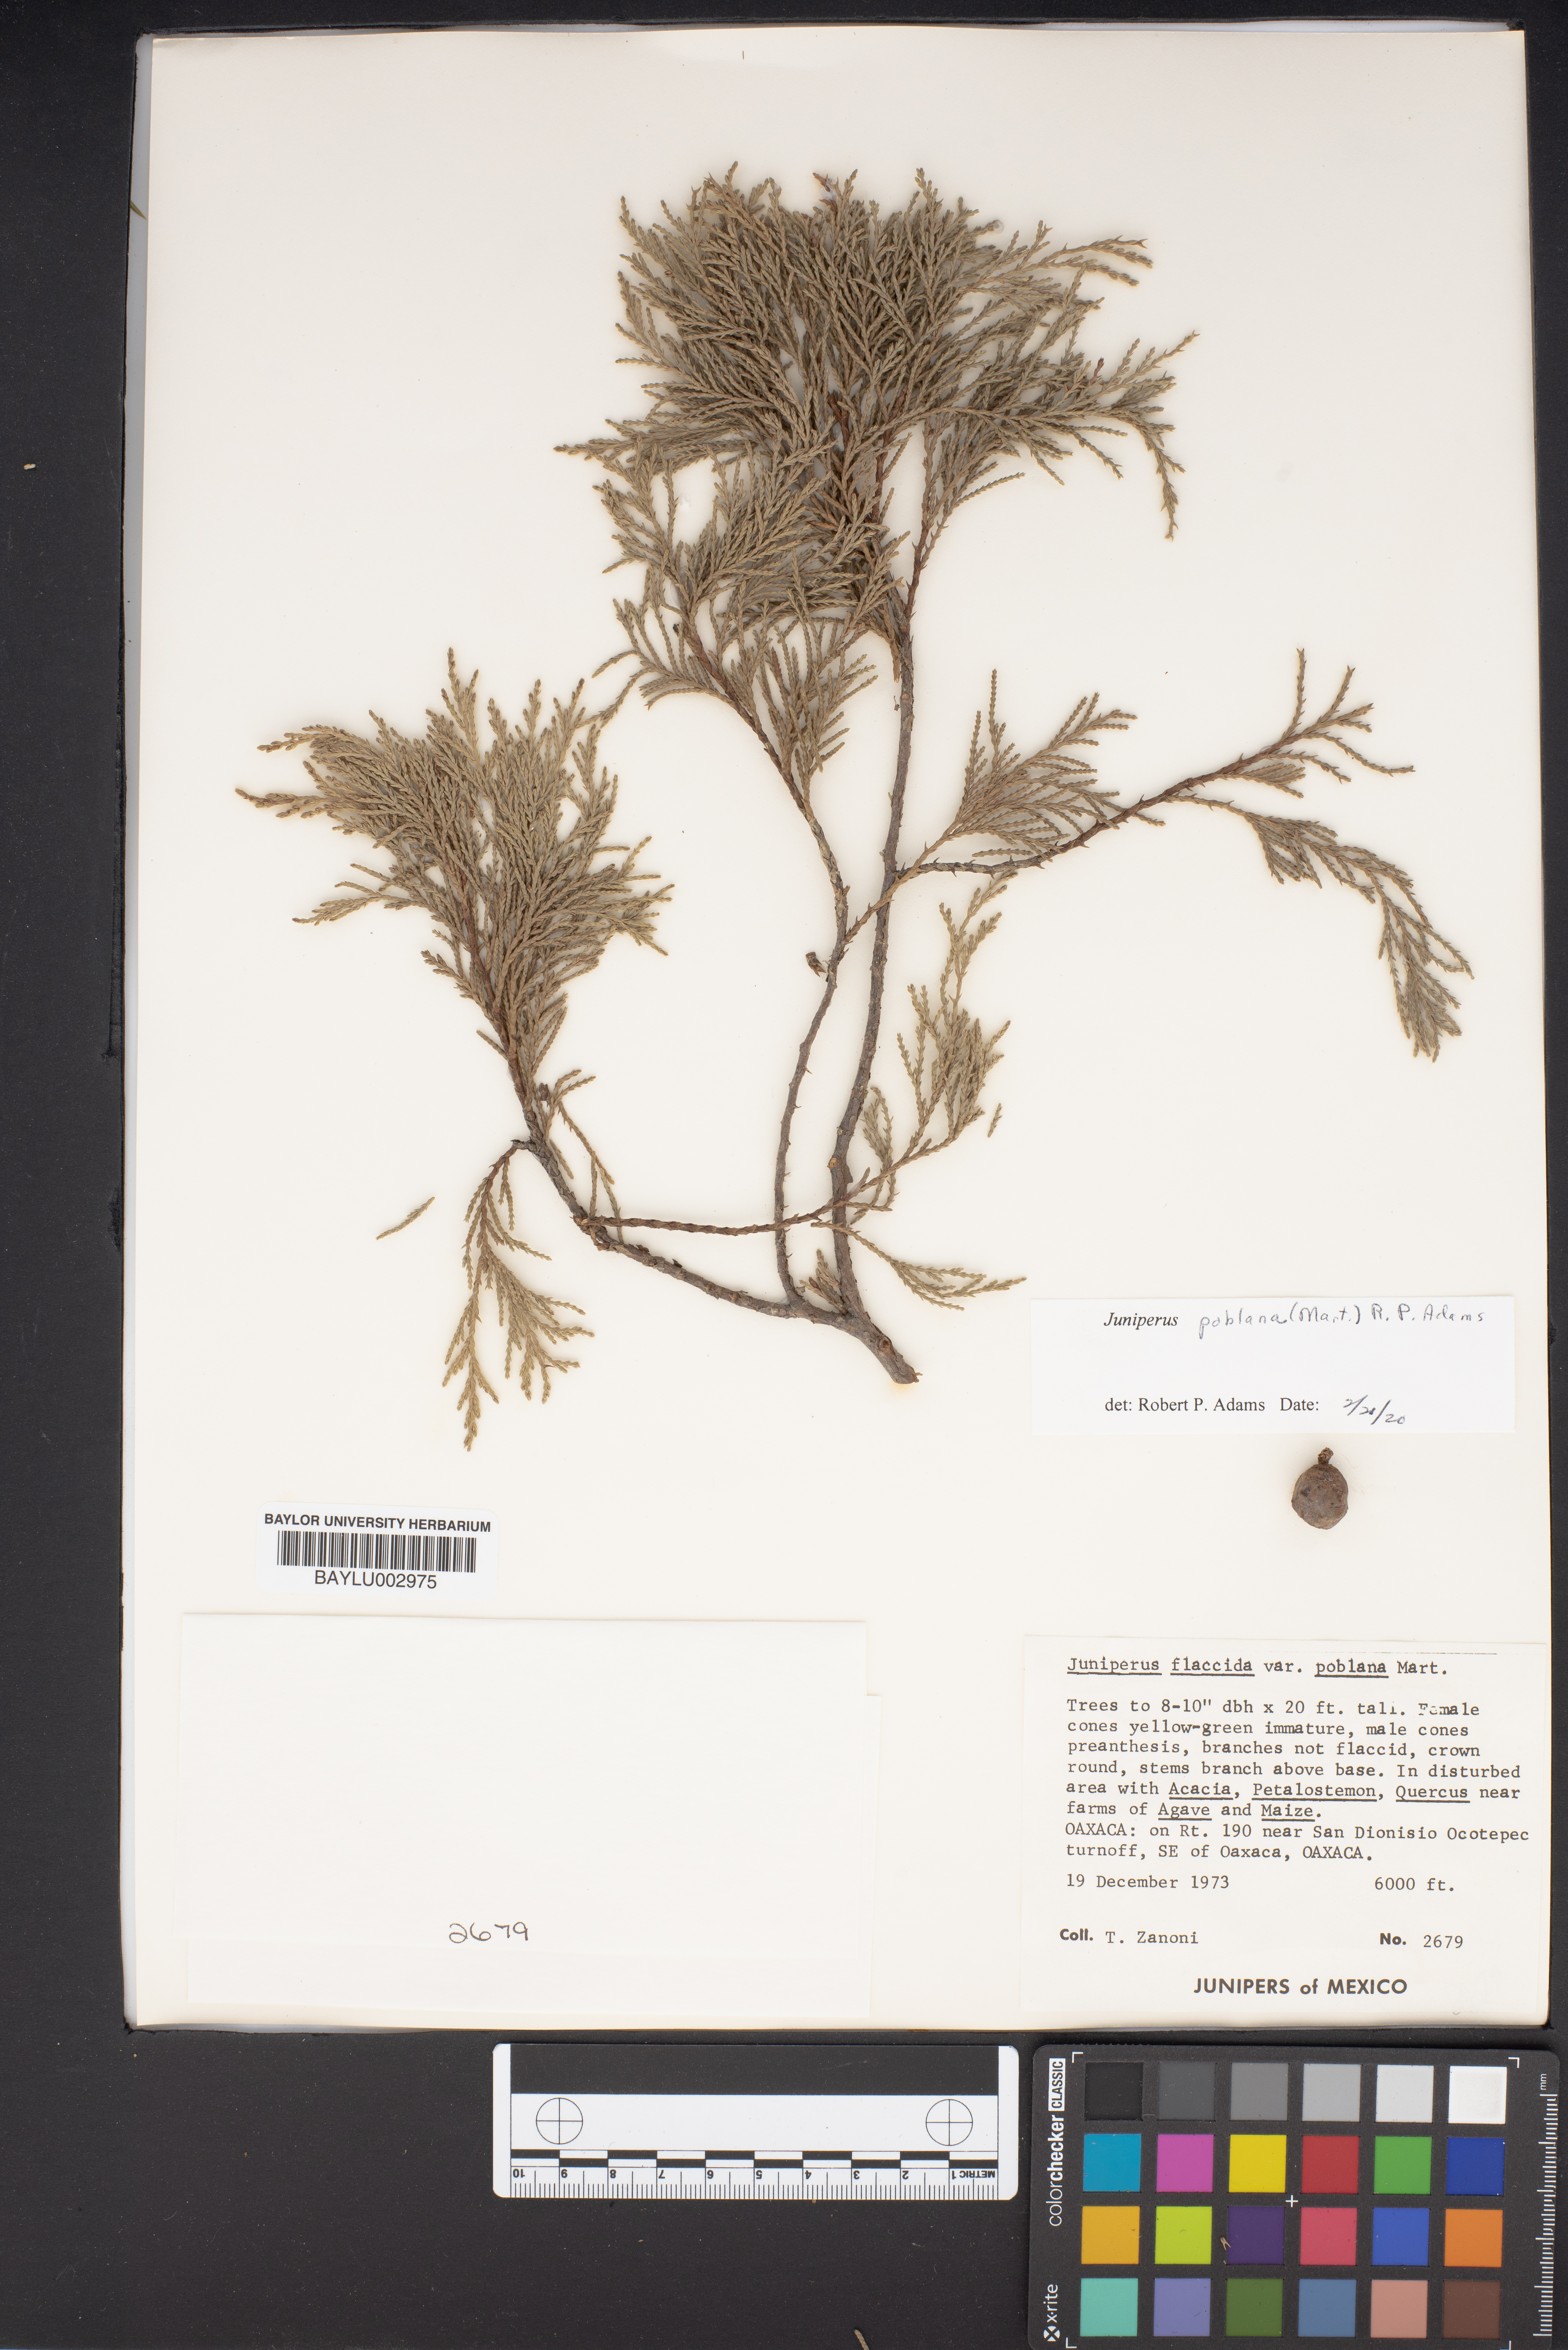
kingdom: Plantae
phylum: Tracheophyta
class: Pinopsida
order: Pinales
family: Cupressaceae
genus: Juniperus
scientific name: Juniperus flaccida
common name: Drooping juniper
